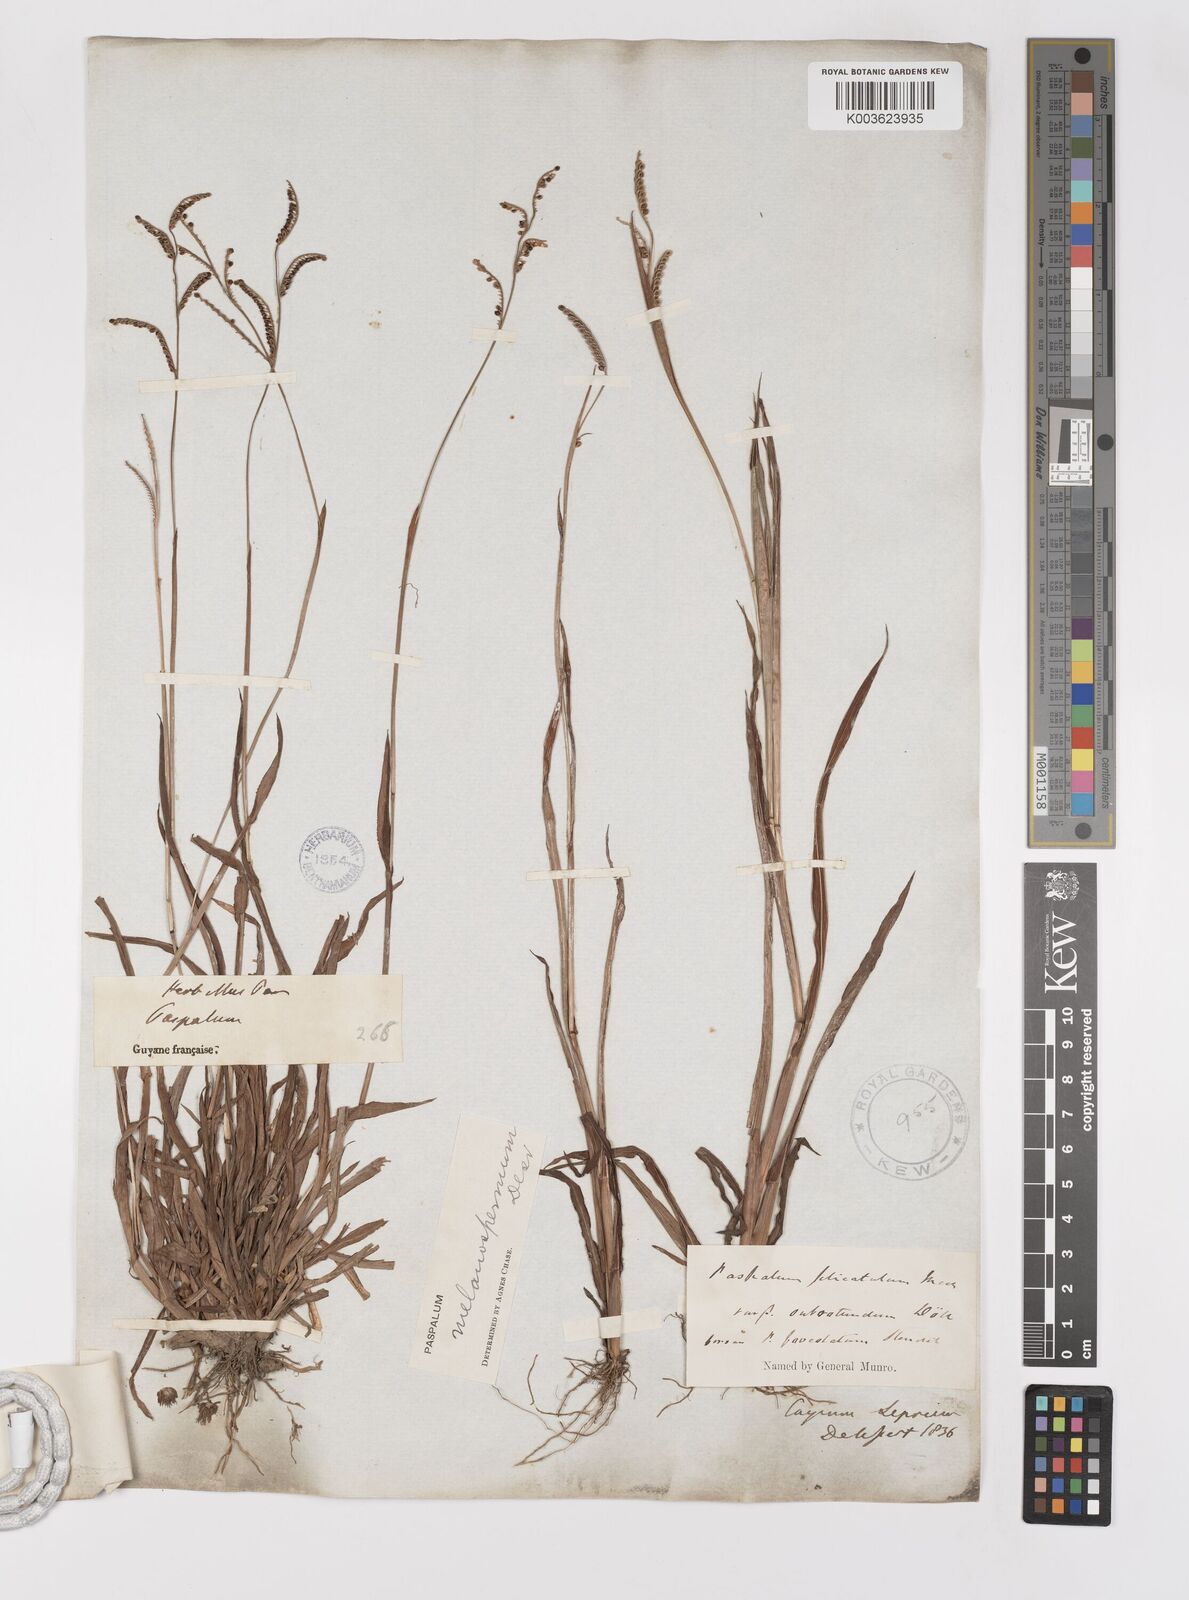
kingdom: Plantae
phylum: Tracheophyta
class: Liliopsida
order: Poales
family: Poaceae
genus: Paspalum
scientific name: Paspalum melanospermum
